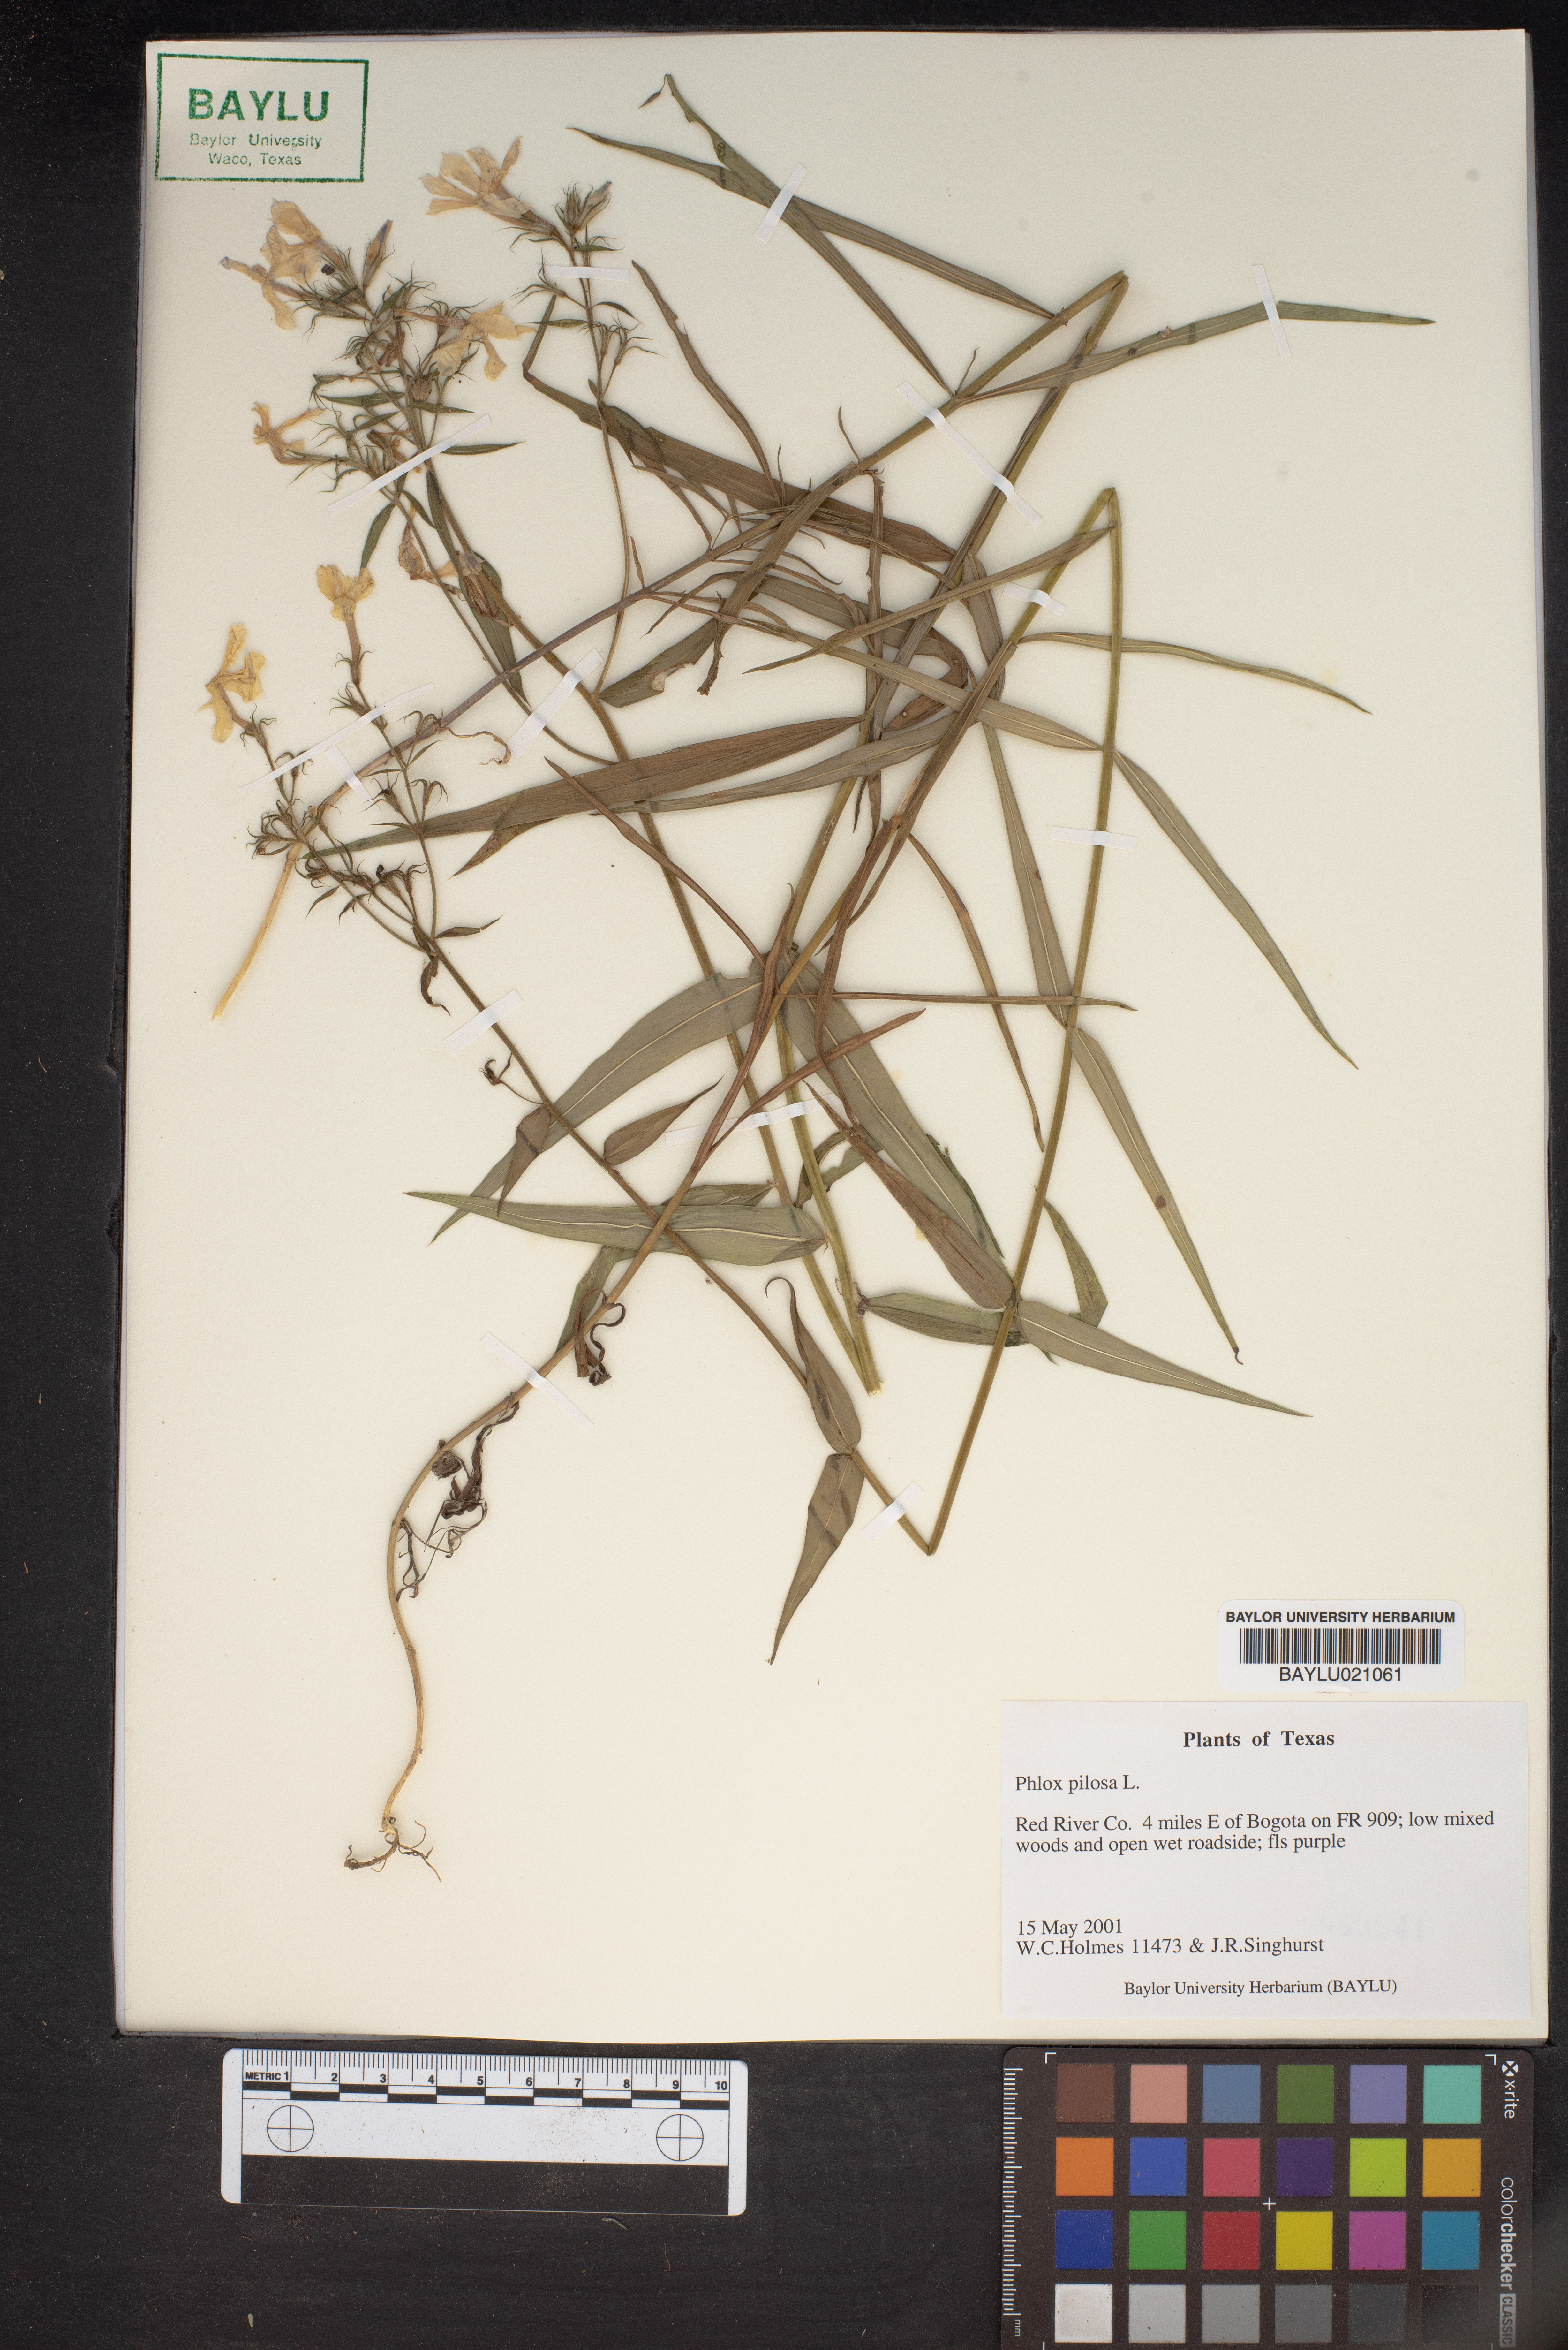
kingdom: Plantae
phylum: Tracheophyta
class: Magnoliopsida
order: Ericales
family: Polemoniaceae
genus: Phlox
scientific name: Phlox pilosa
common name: Prairie phlox
